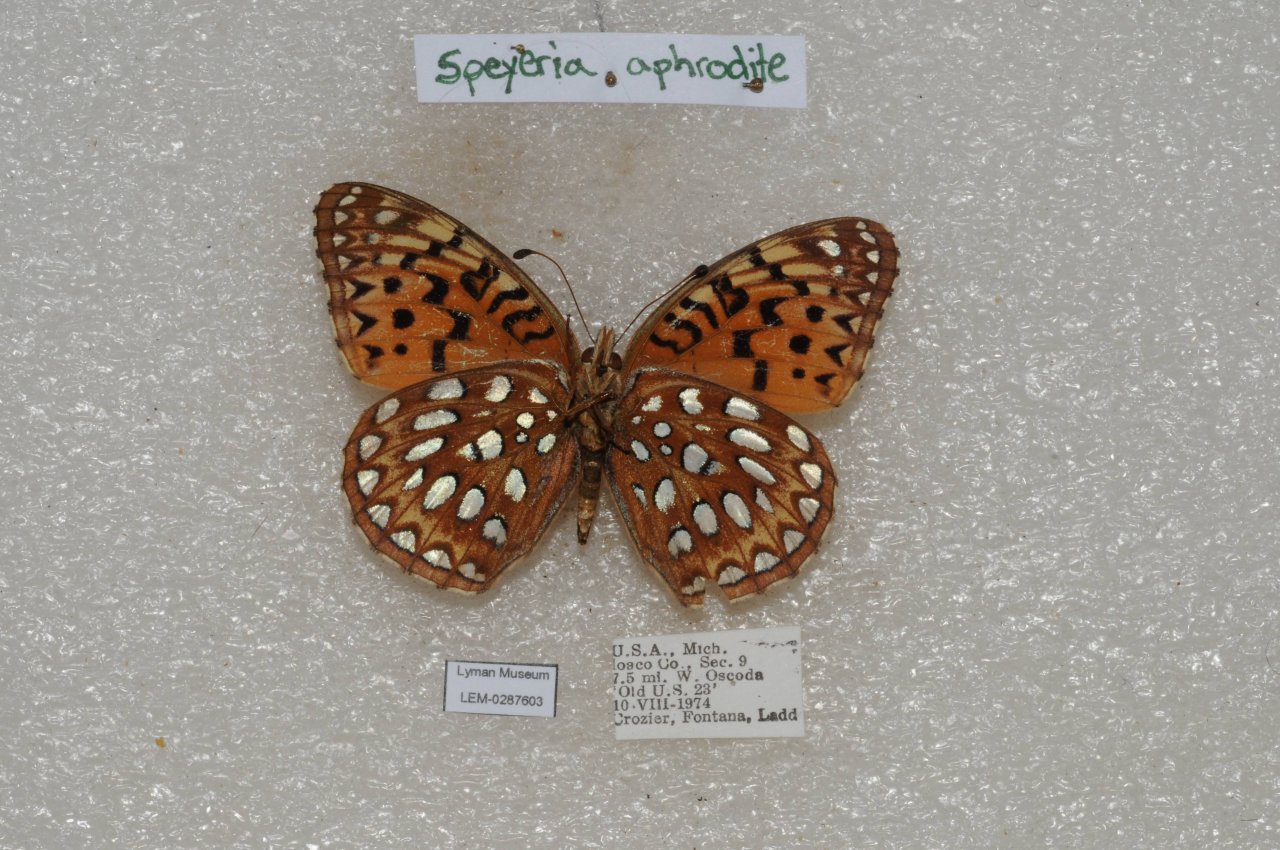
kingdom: Animalia
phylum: Arthropoda
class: Insecta
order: Lepidoptera
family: Nymphalidae
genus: Speyeria
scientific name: Speyeria aphrodite
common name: Aphrodite Fritillary
